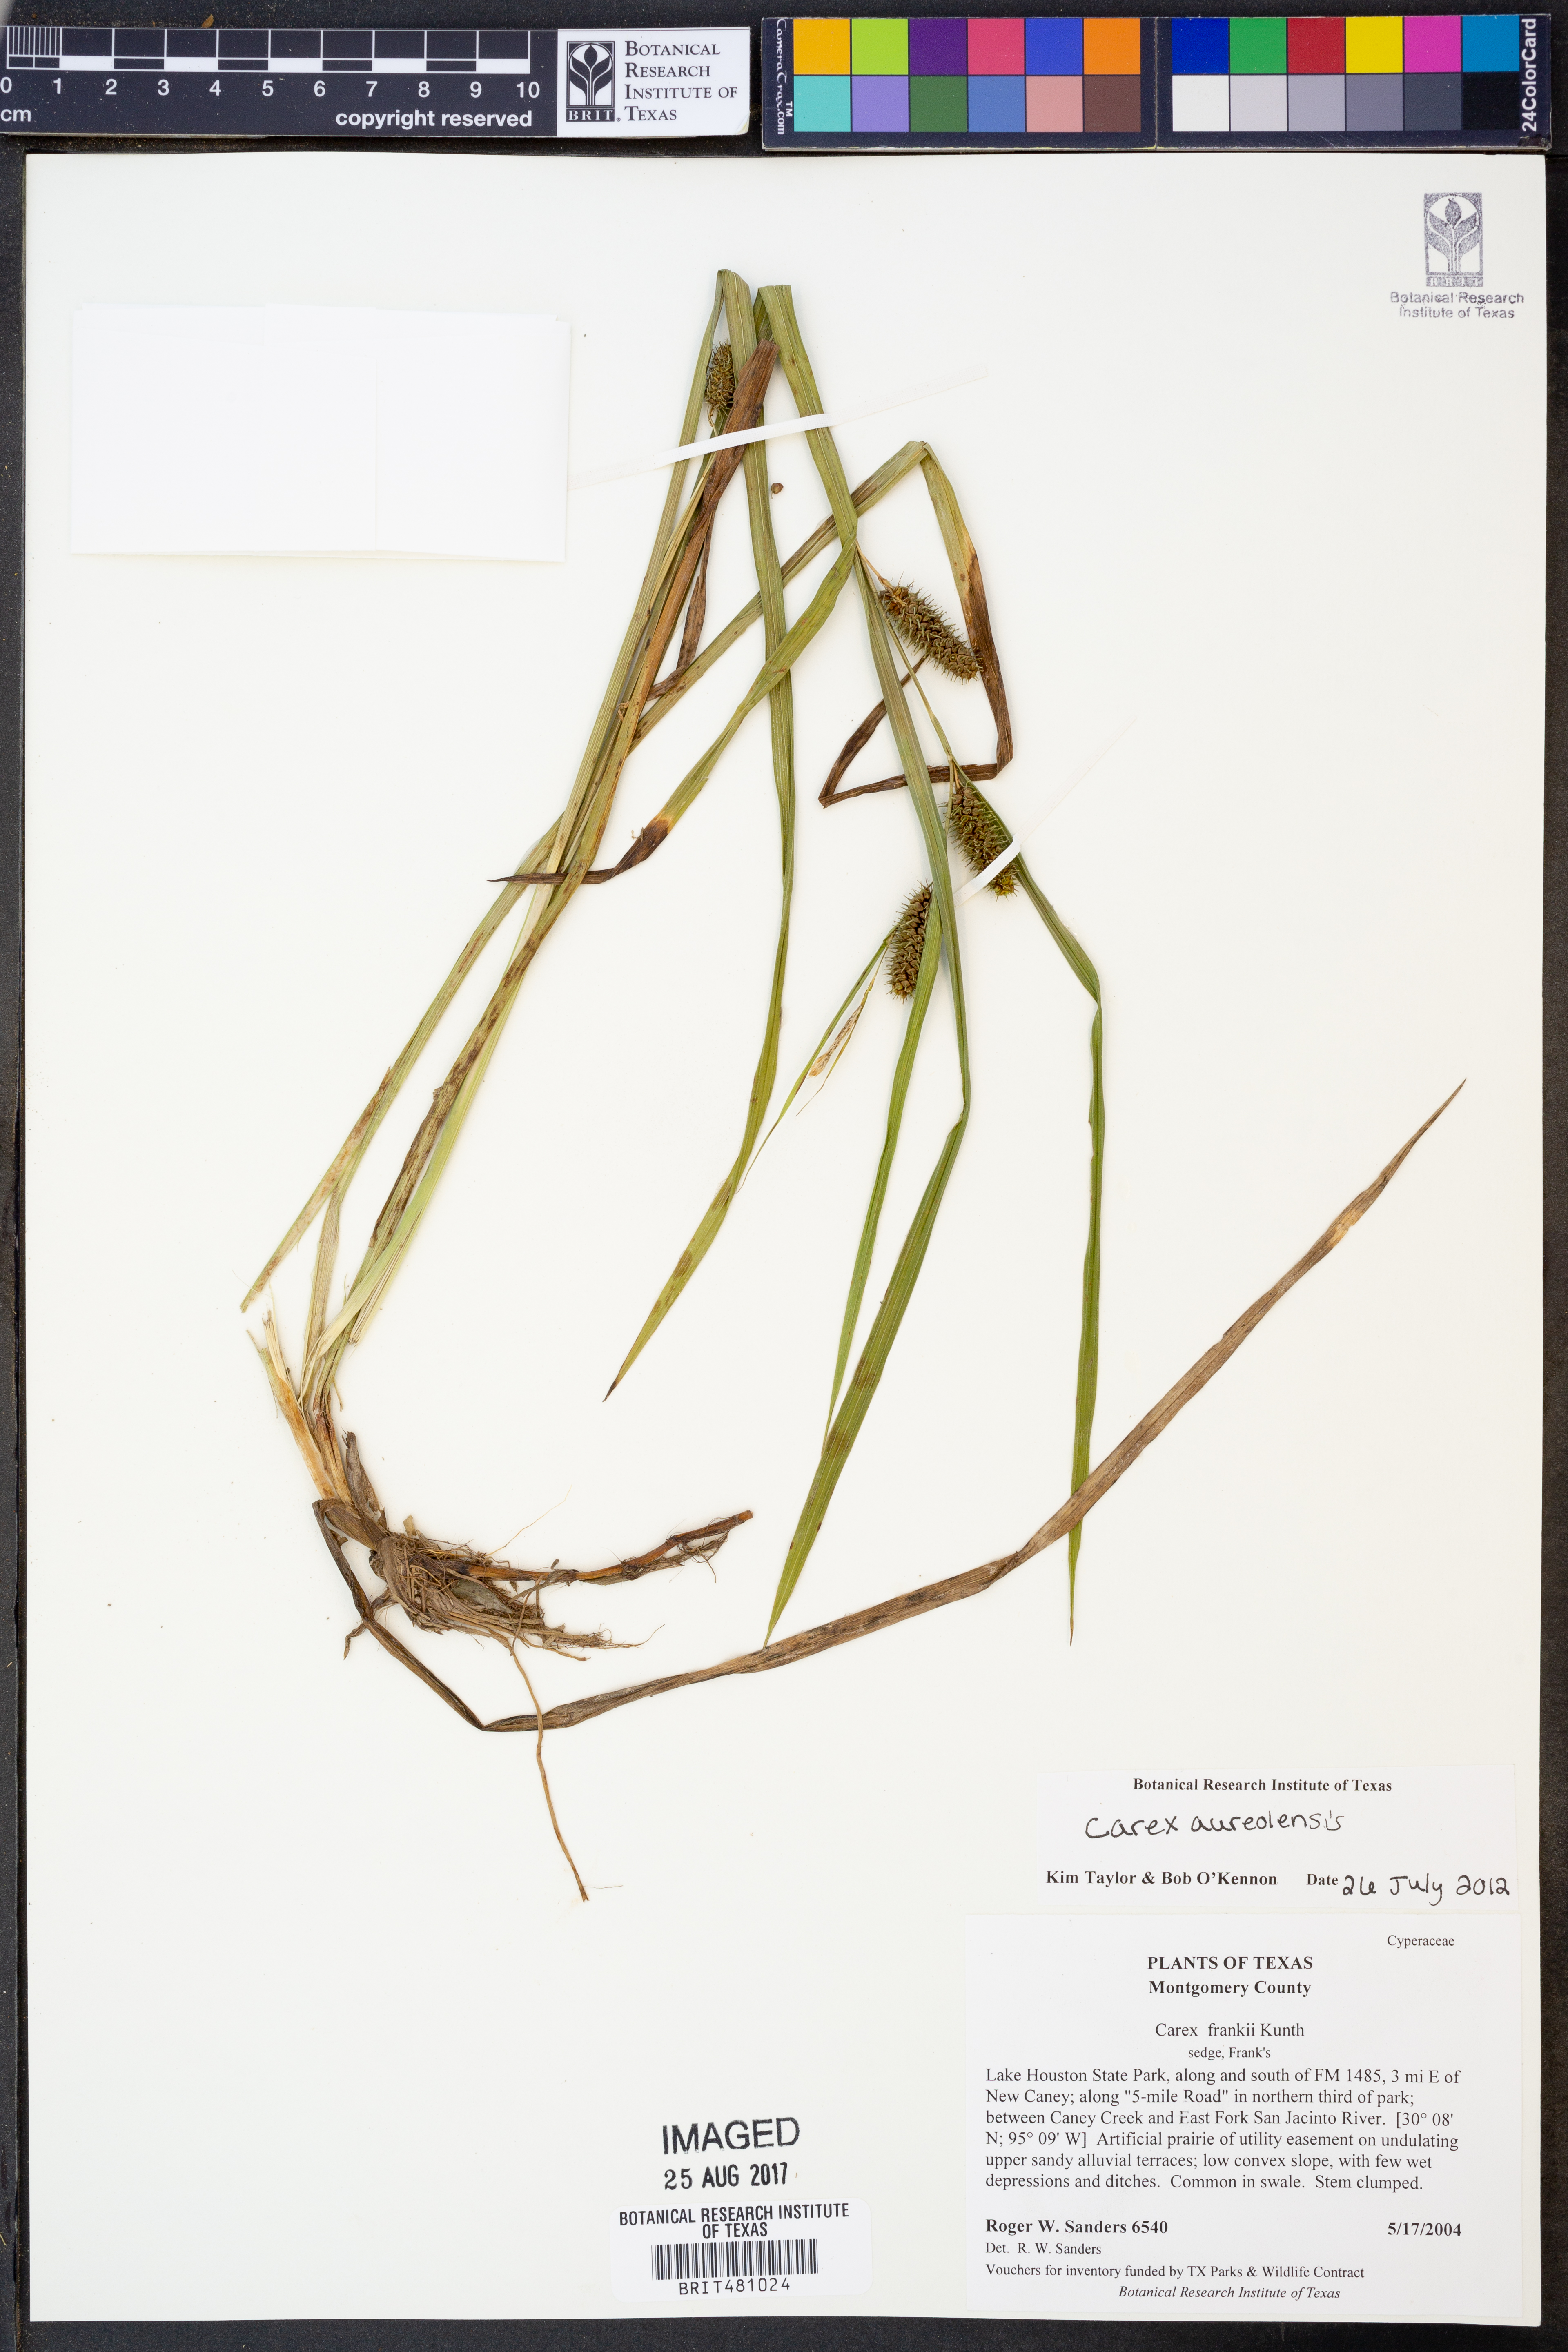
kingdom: Plantae
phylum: Tracheophyta
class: Liliopsida
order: Poales
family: Cyperaceae
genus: Carex
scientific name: Carex aureolensis
